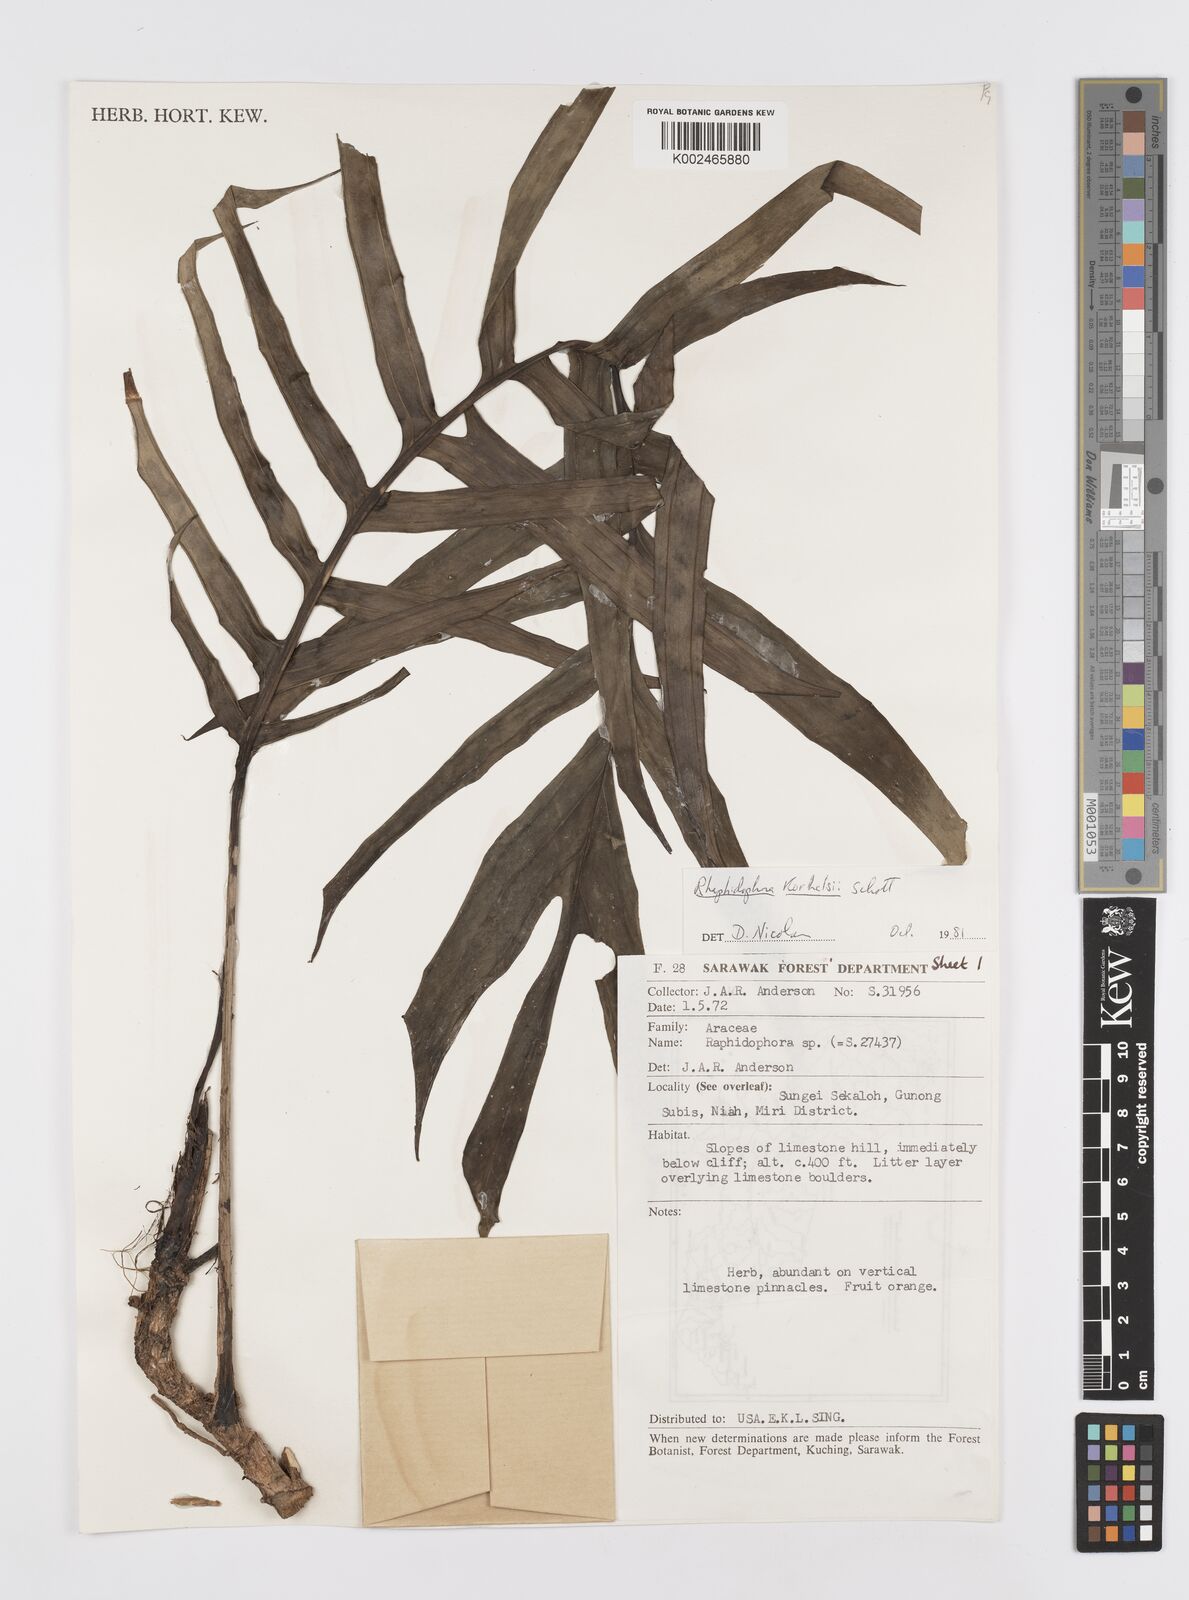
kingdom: Plantae
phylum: Tracheophyta
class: Liliopsida
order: Alismatales
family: Araceae
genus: Rhaphidophora
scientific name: Rhaphidophora korthalsii
